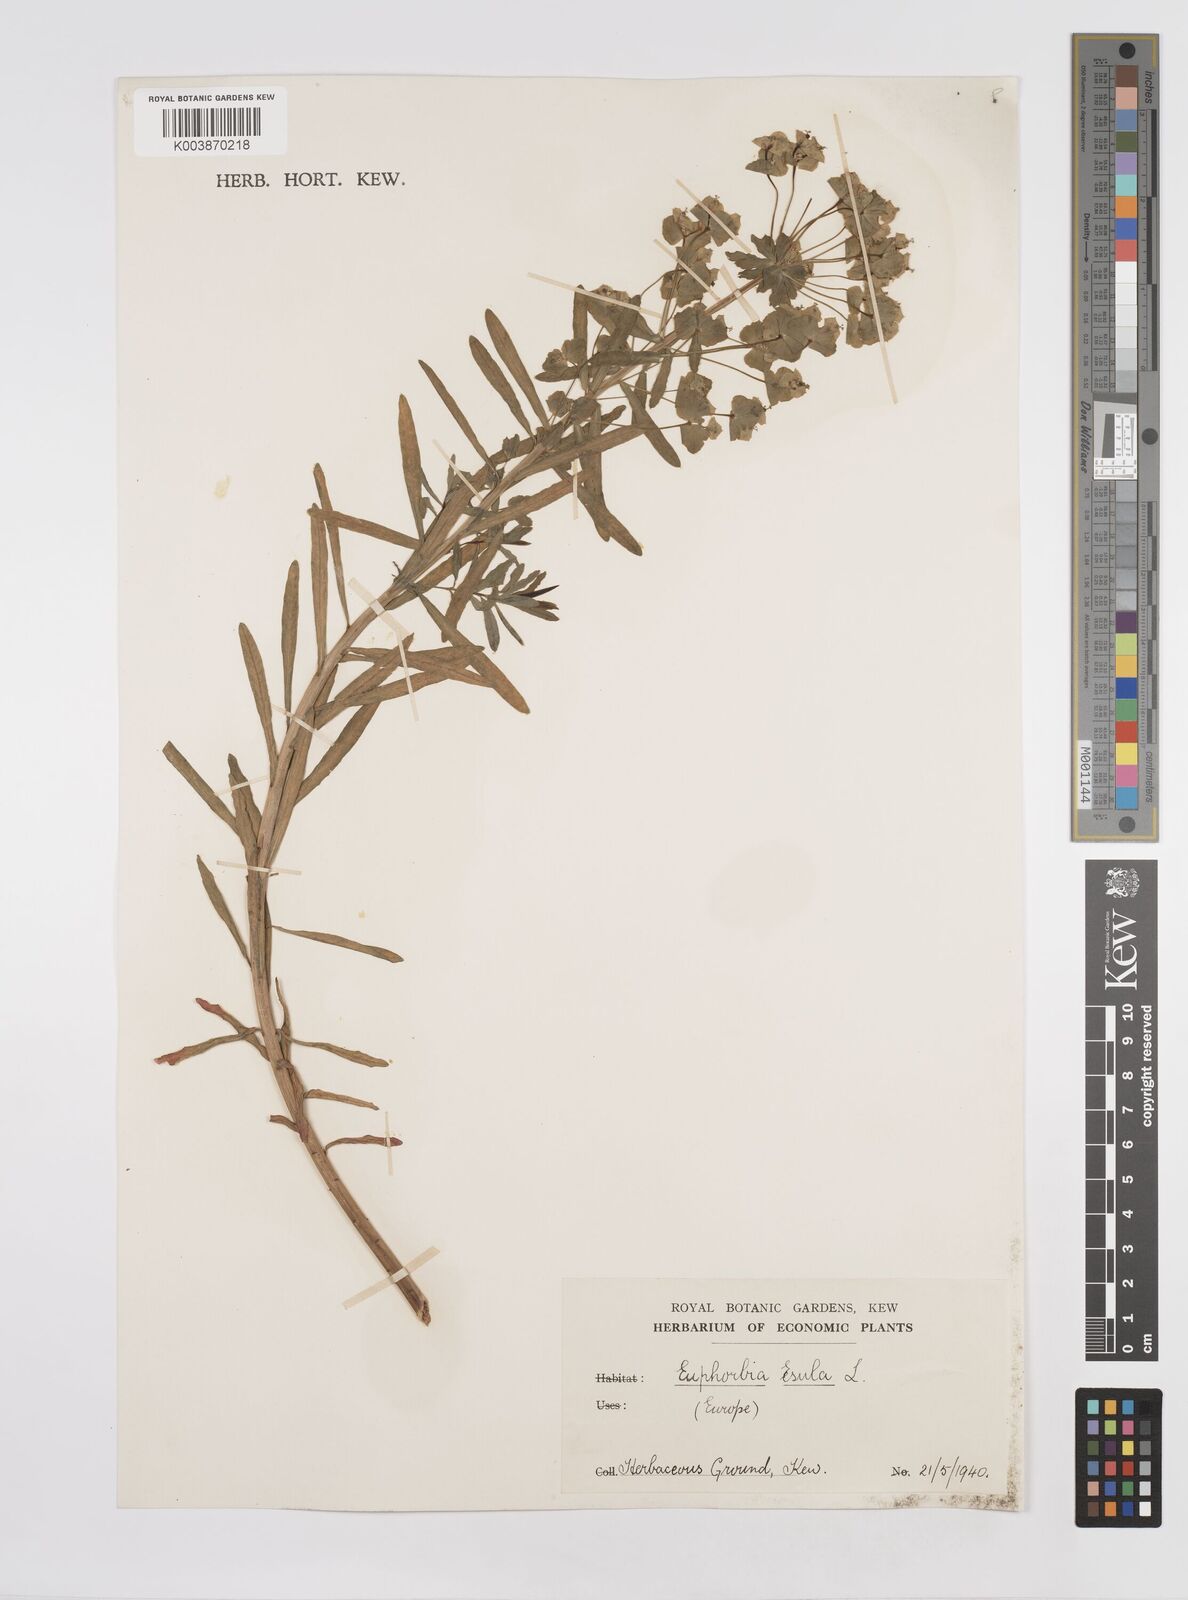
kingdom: Plantae
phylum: Tracheophyta
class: Magnoliopsida
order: Malpighiales
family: Euphorbiaceae
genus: Euphorbia
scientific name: Euphorbia esula
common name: Leafy spurge
